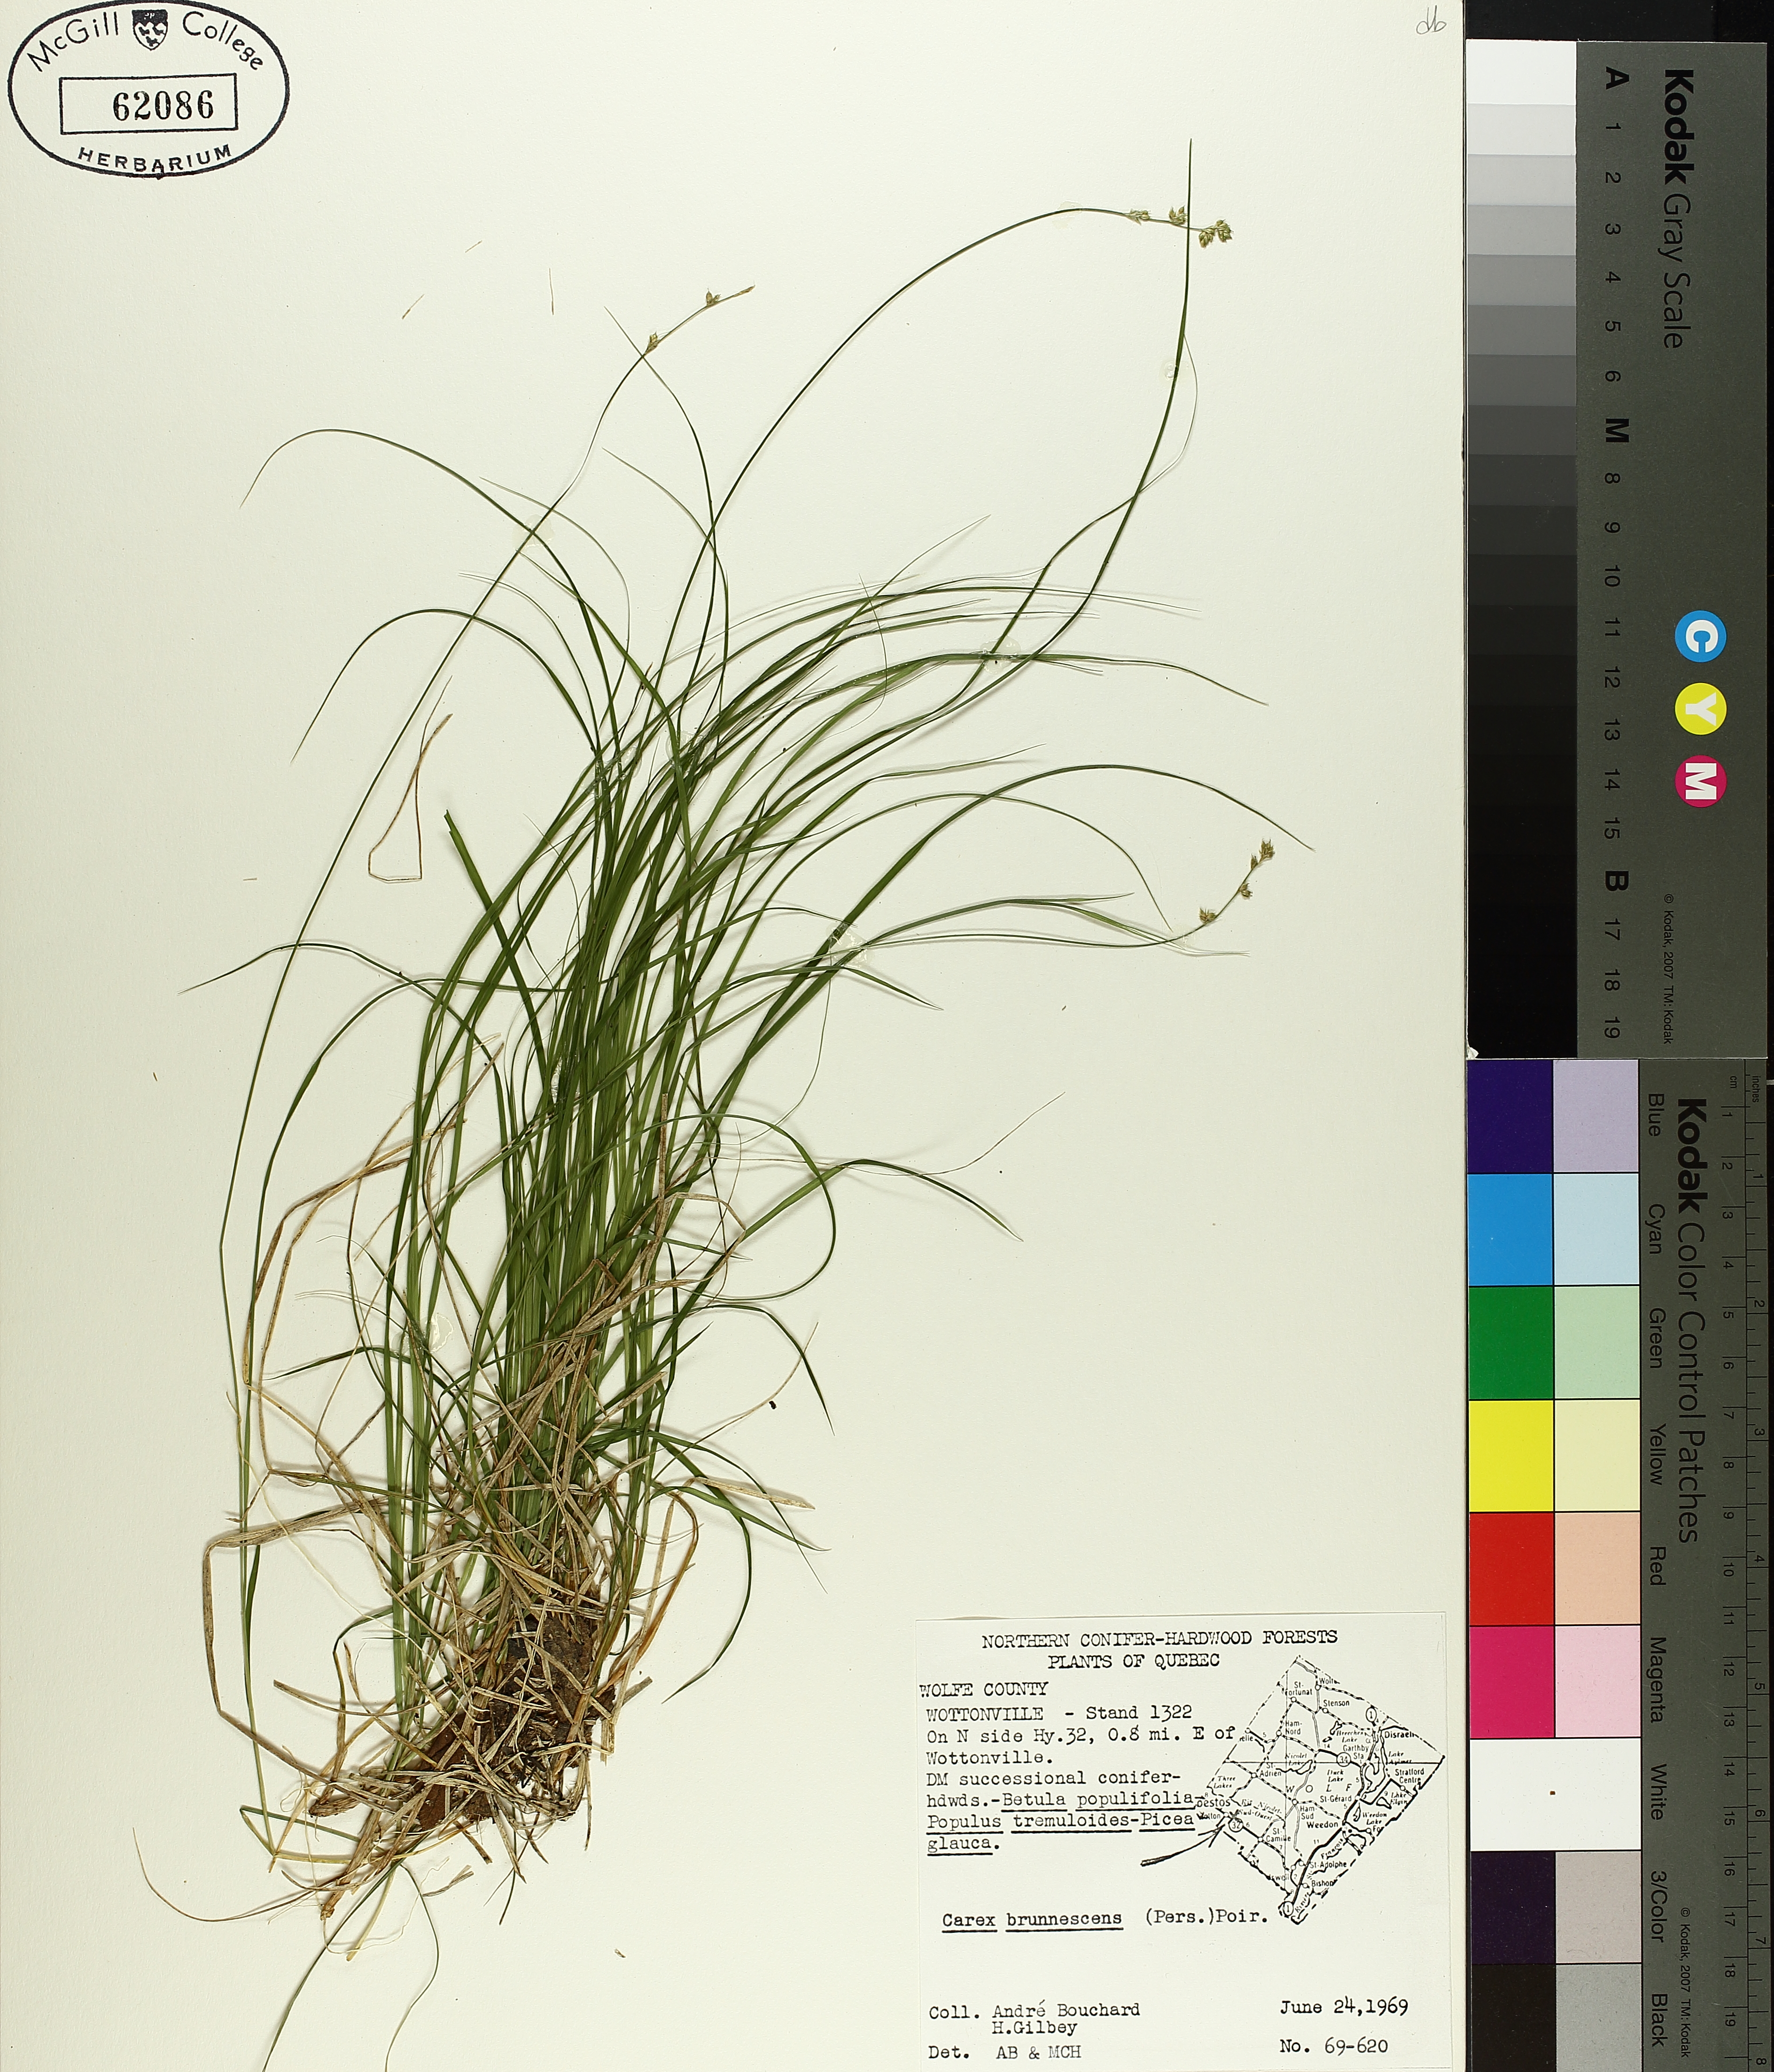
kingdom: Plantae
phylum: Tracheophyta
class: Liliopsida
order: Poales
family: Cyperaceae
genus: Carex
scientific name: Carex brunnescens
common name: Brown sedge
